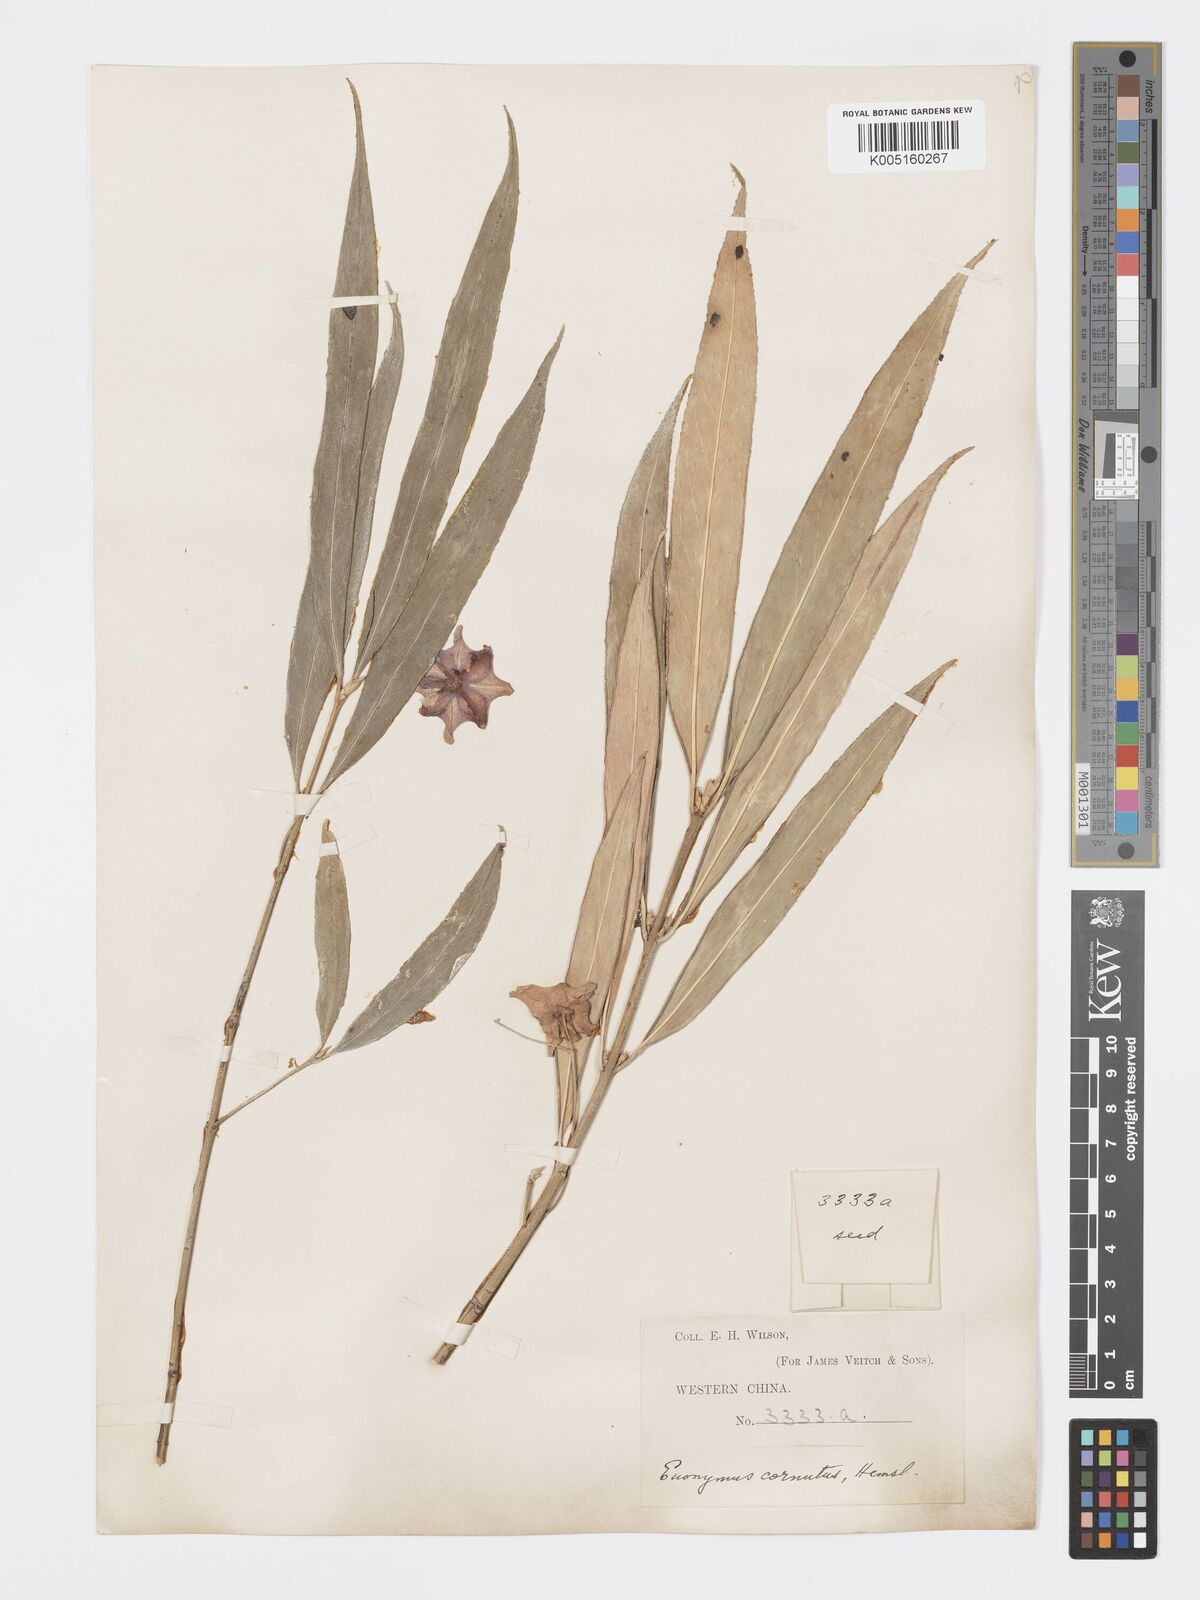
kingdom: Plantae
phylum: Tracheophyta
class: Magnoliopsida
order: Celastrales
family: Celastraceae
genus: Euonymus
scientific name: Euonymus cornutus
